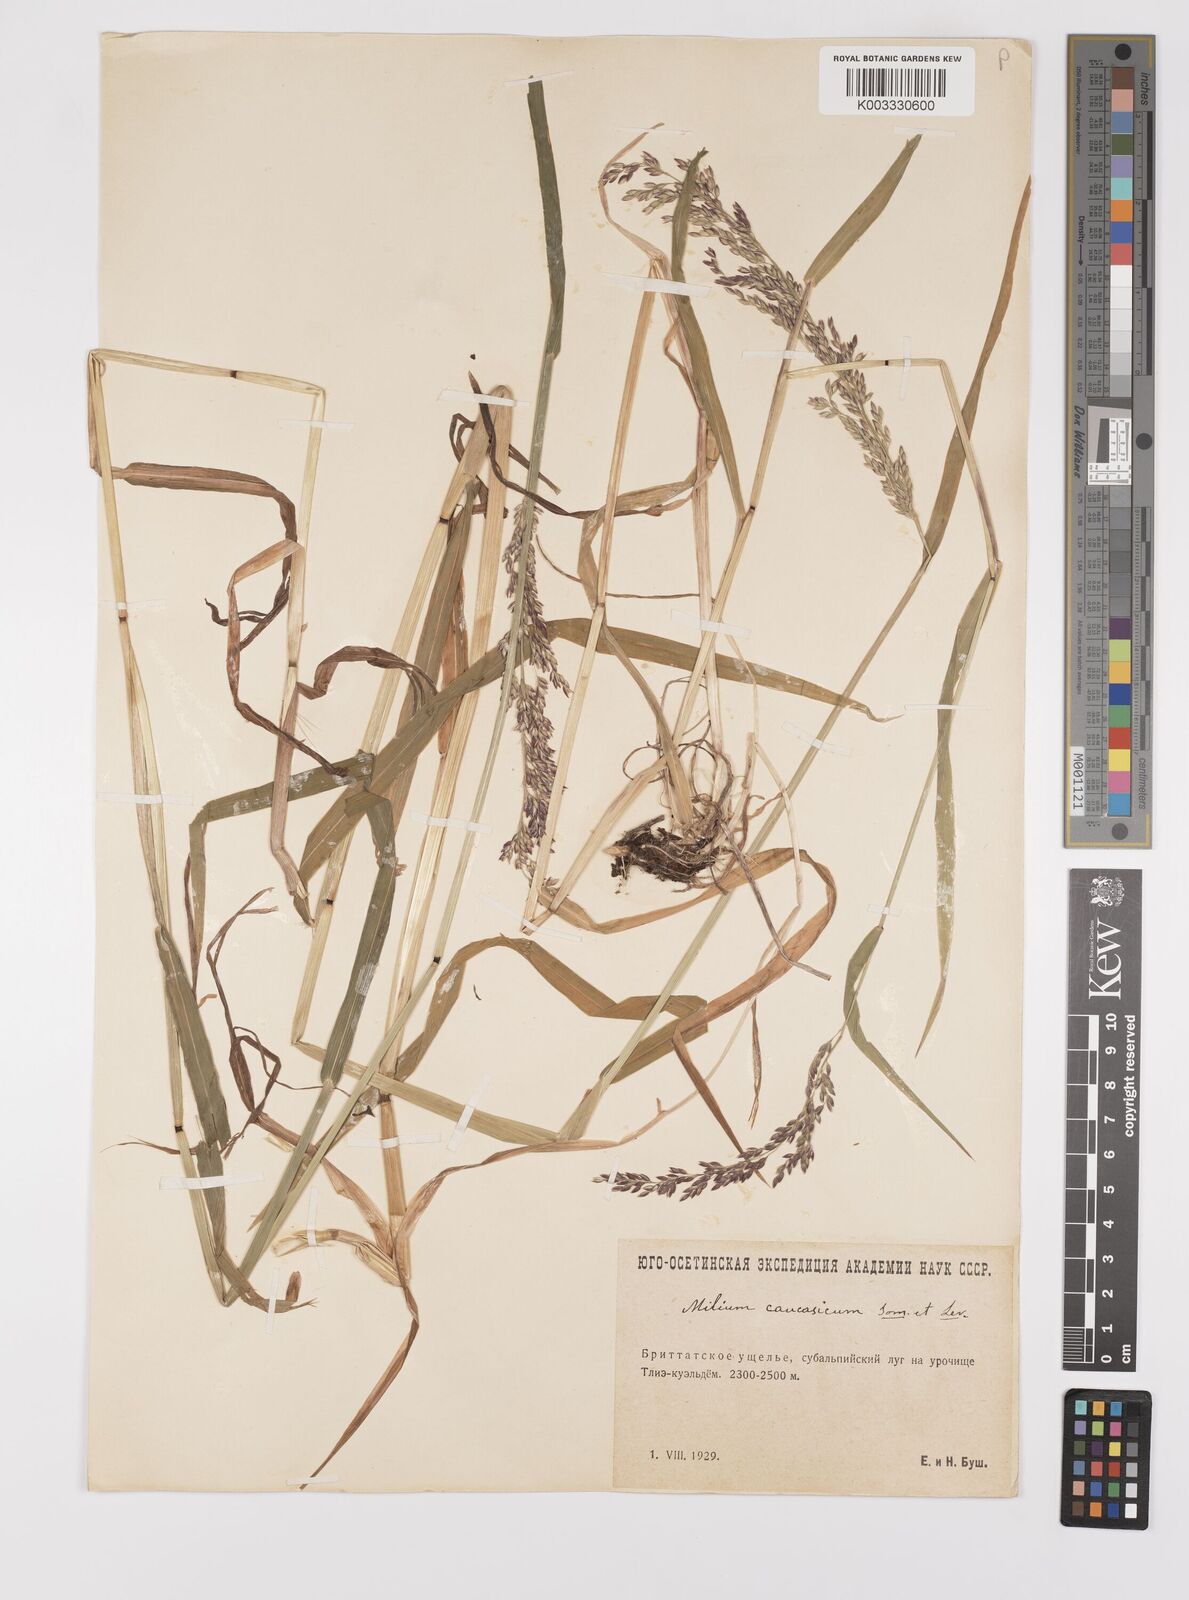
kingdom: Plantae
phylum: Tracheophyta
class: Liliopsida
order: Poales
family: Poaceae
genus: Milium
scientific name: Milium schmidtianum
